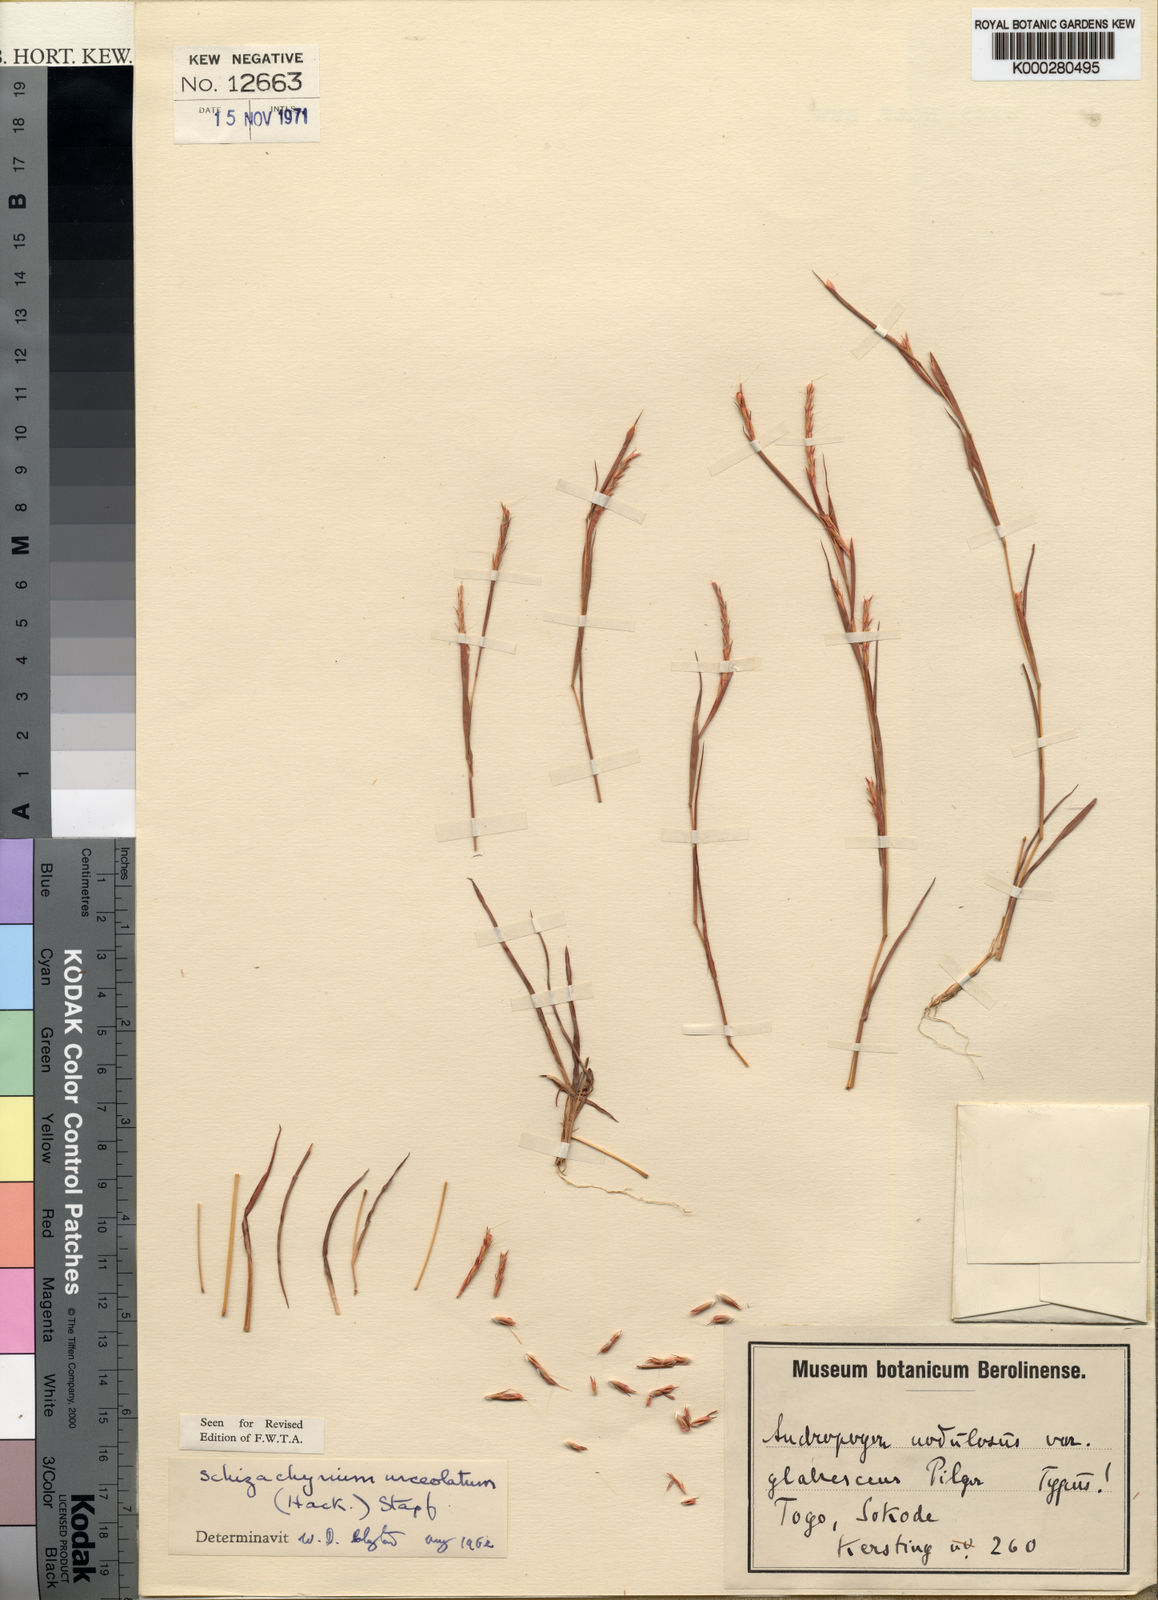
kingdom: Plantae
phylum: Tracheophyta
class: Liliopsida
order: Poales
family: Poaceae
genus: Schizachyrium
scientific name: Schizachyrium urceolatum
